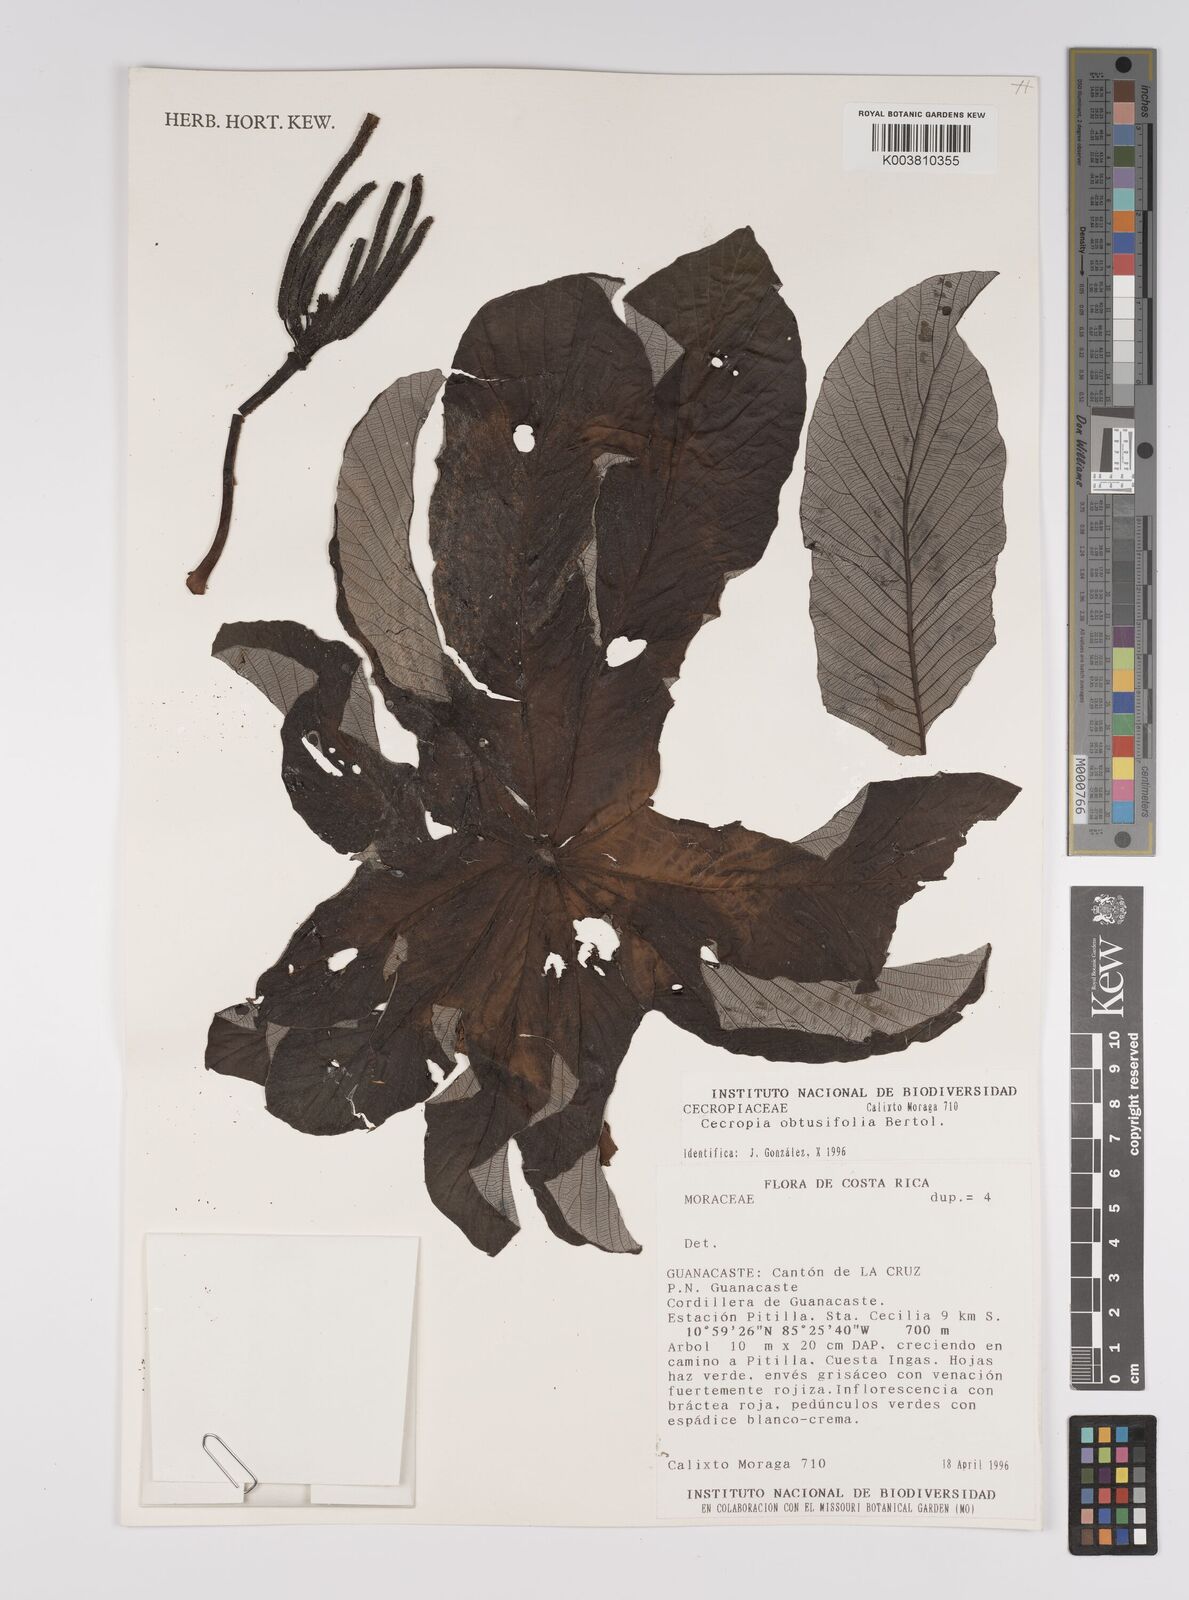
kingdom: Plantae
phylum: Tracheophyta
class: Magnoliopsida
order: Rosales
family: Urticaceae
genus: Cecropia
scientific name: Cecropia obtusifolia
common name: Trumpet tree
